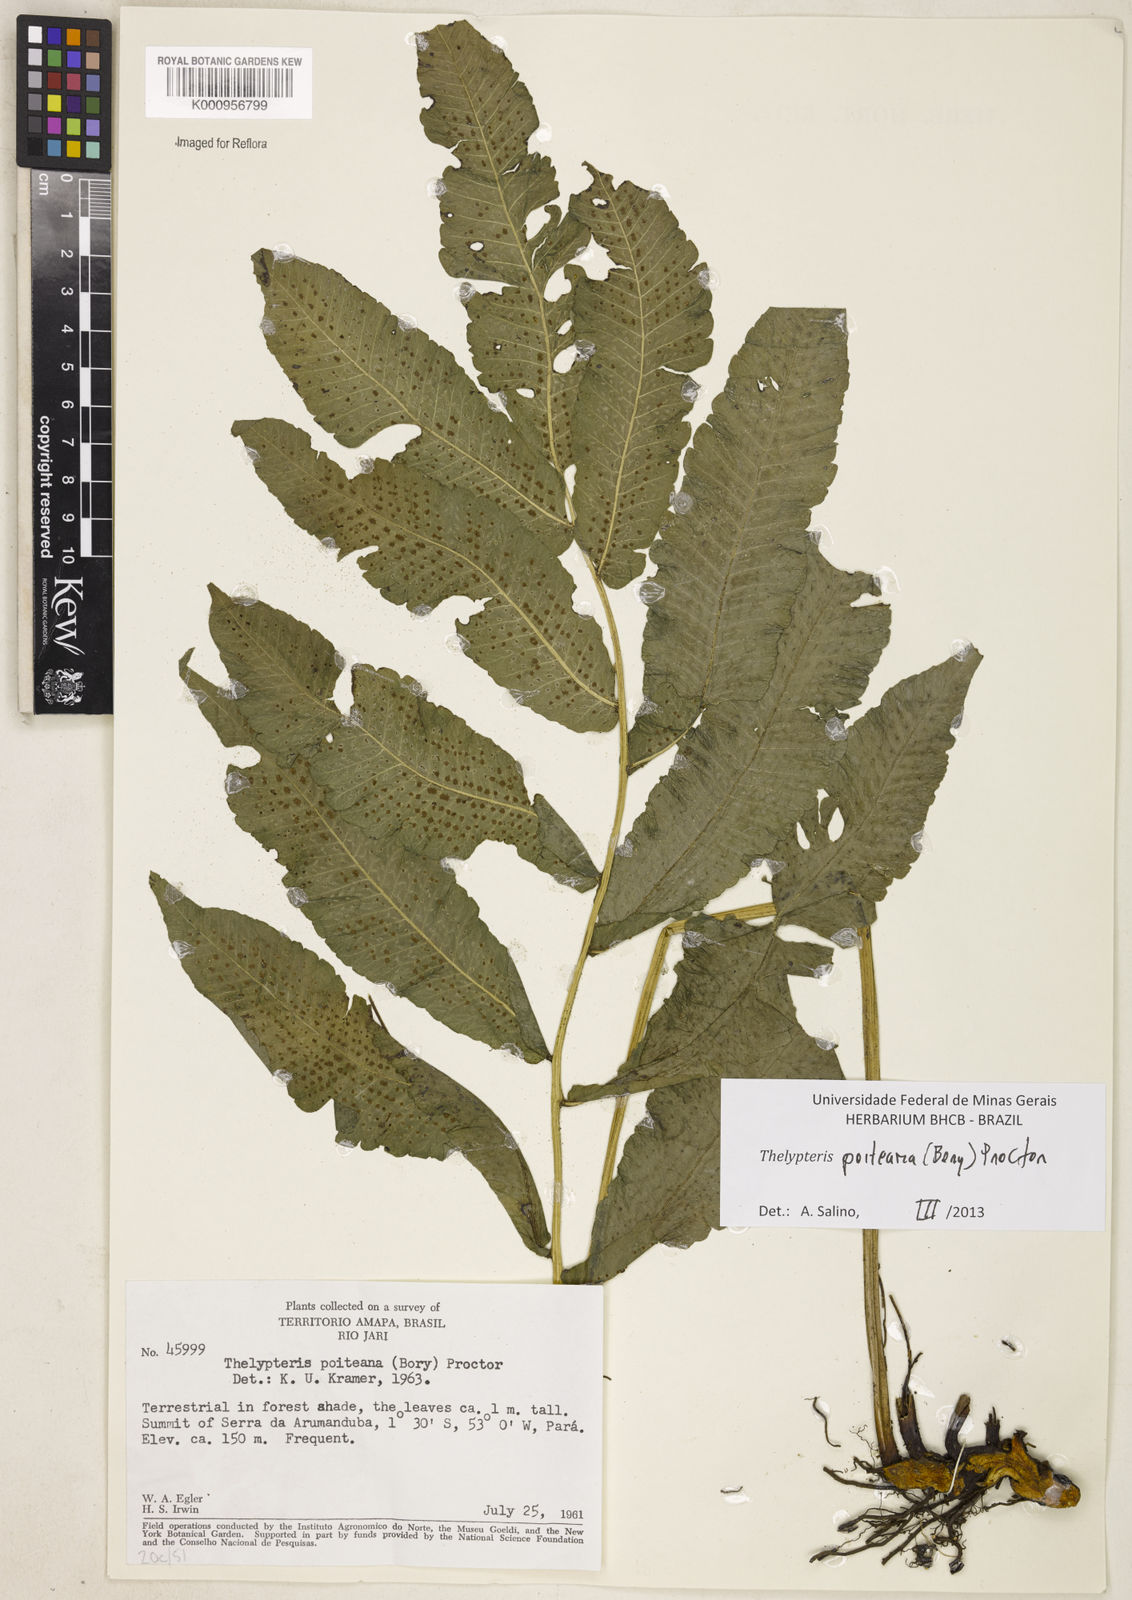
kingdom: Plantae
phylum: Tracheophyta
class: Polypodiopsida
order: Polypodiales
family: Thelypteridaceae
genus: Goniopteris
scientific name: Goniopteris poiteana
